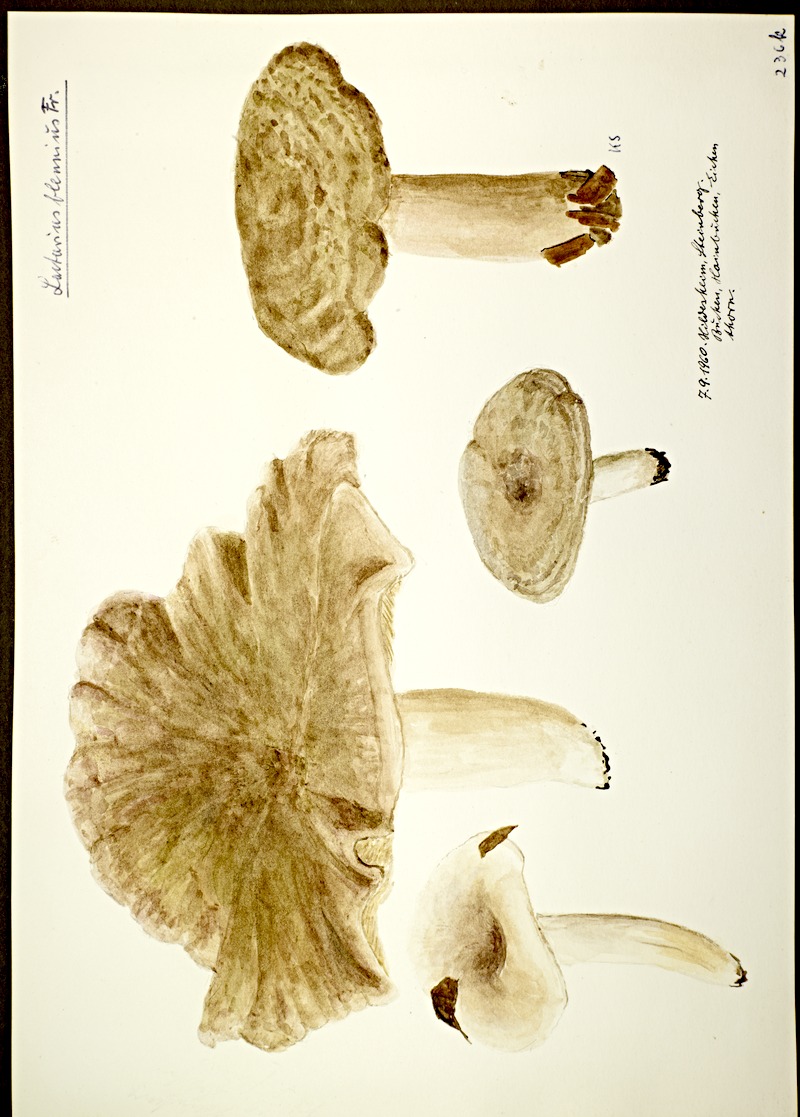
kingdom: Fungi
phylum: Basidiomycota
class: Agaricomycetes
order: Russulales
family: Russulaceae
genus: Lactarius
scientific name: Lactarius blennius
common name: Beech milkcap
